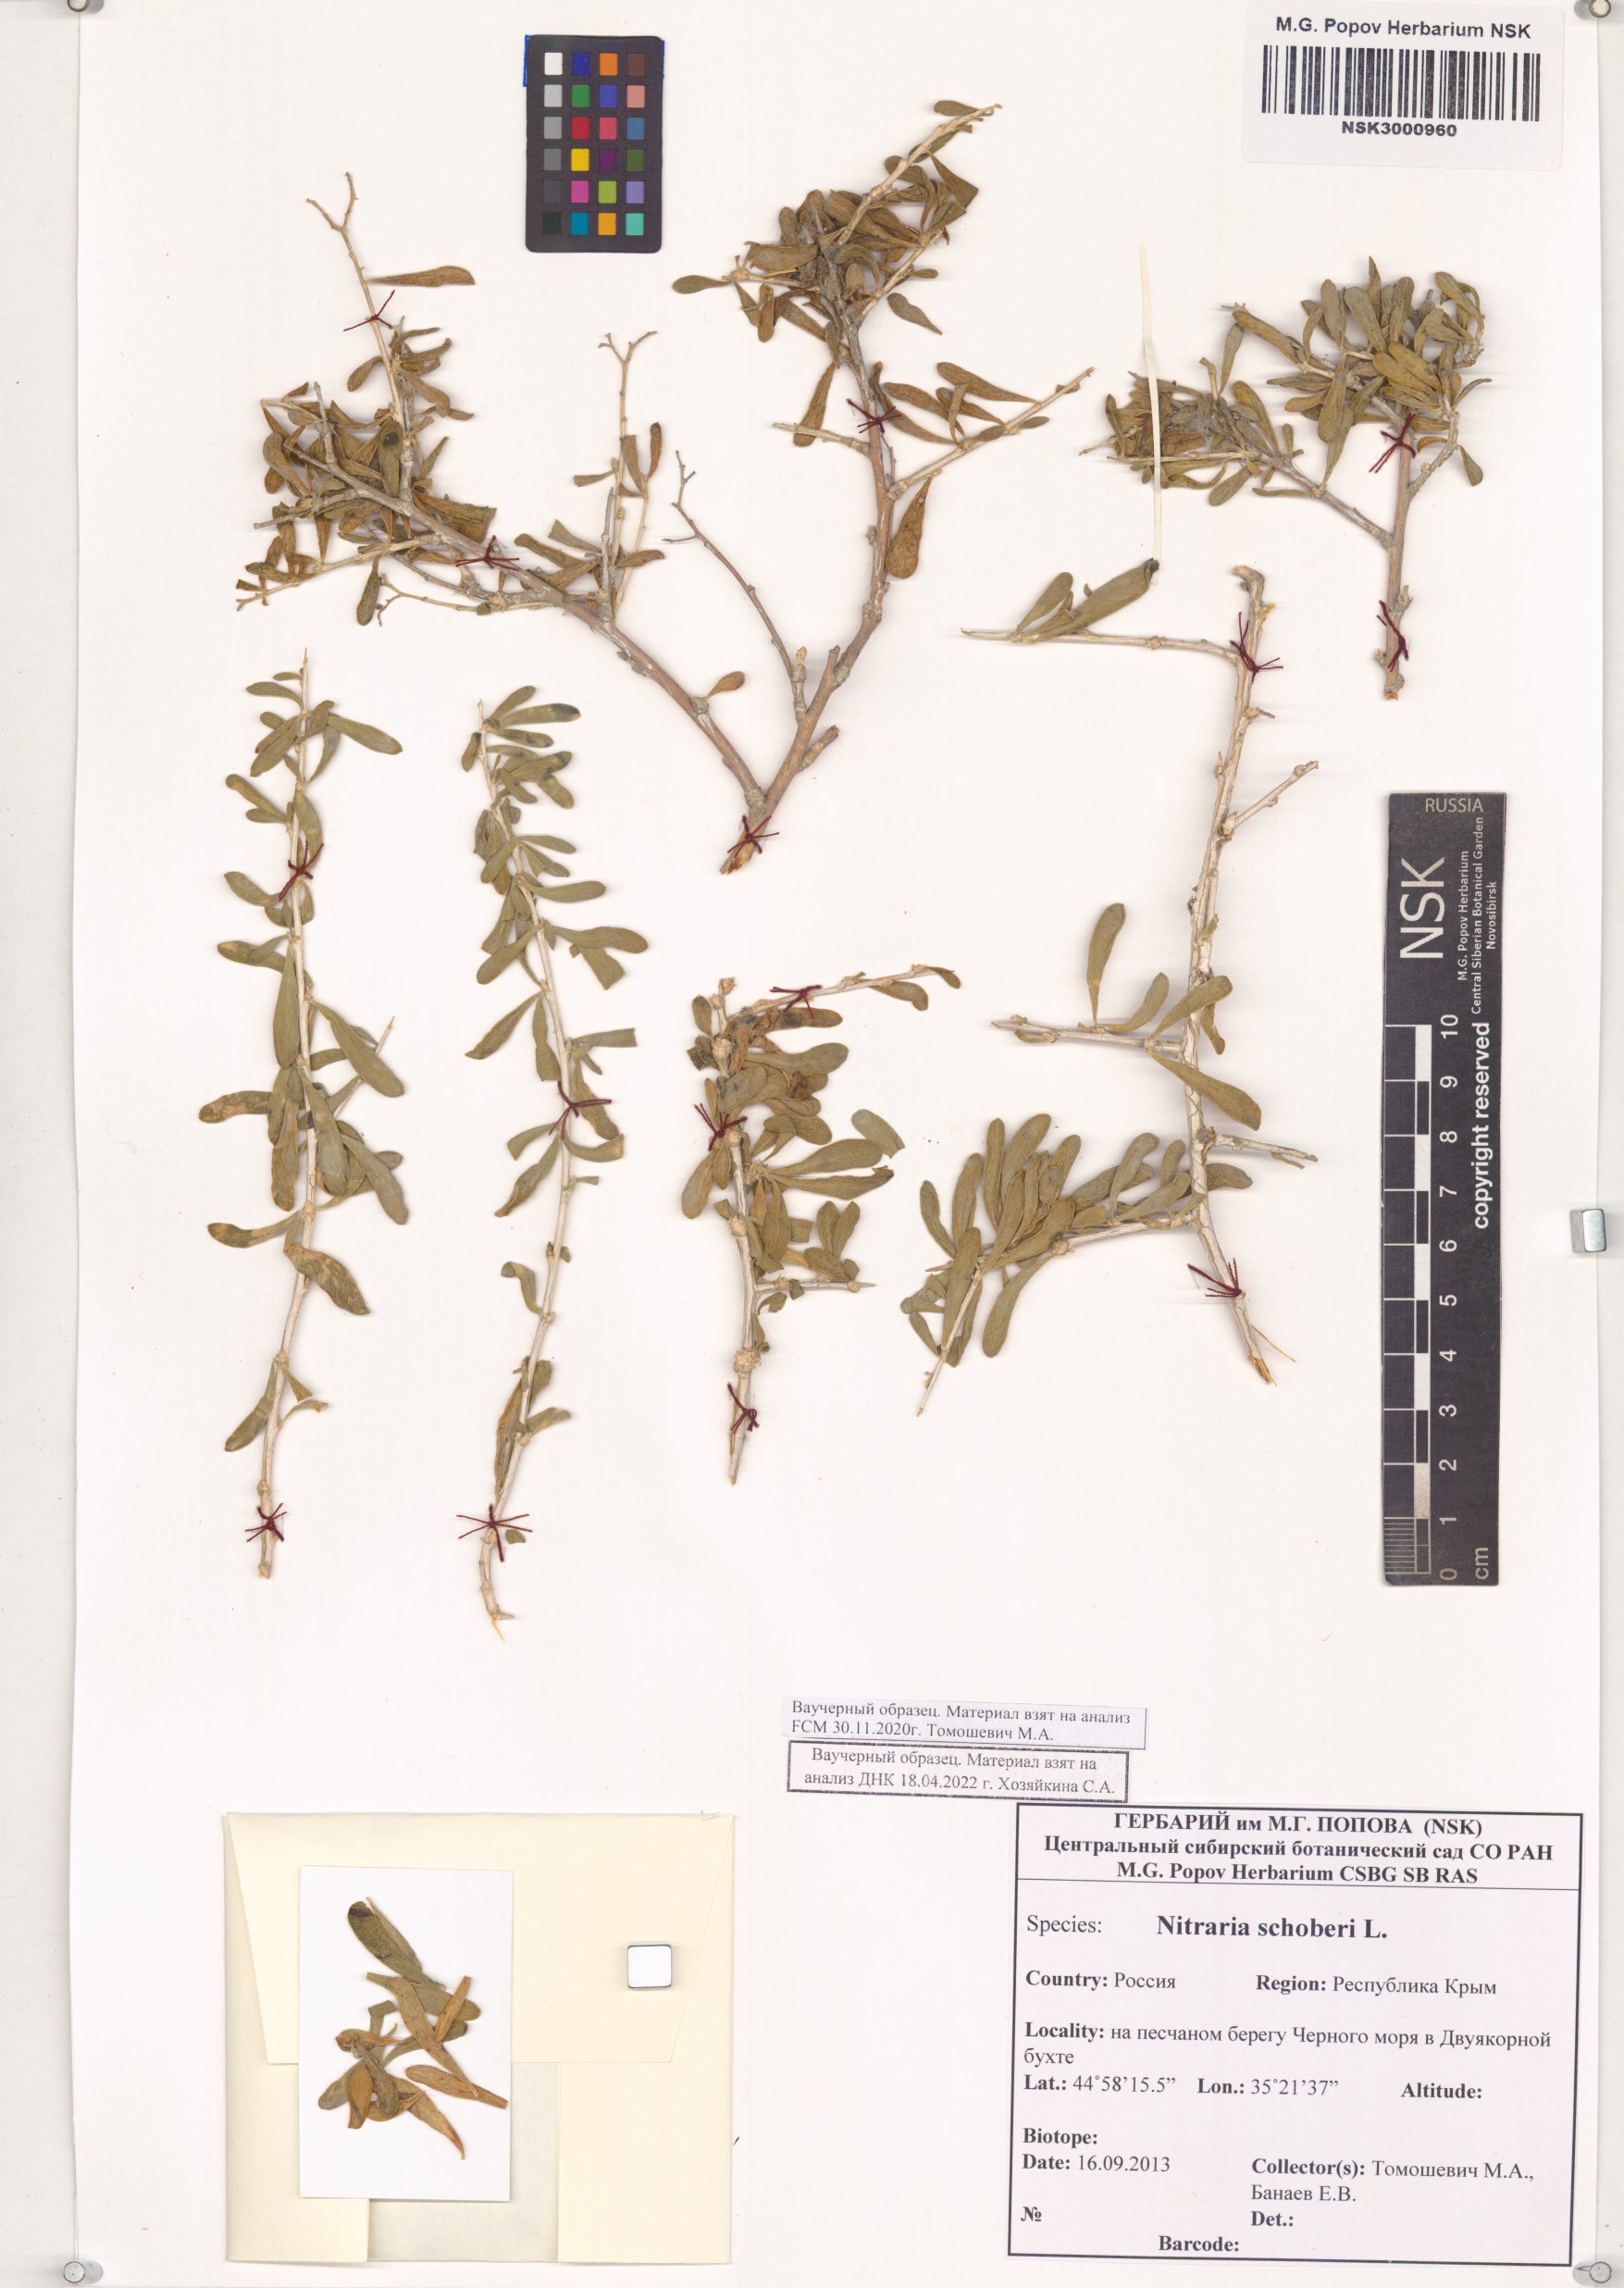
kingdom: Plantae
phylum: Tracheophyta
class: Magnoliopsida
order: Sapindales
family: Nitrariaceae
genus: Nitraria
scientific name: Nitraria schoberi
